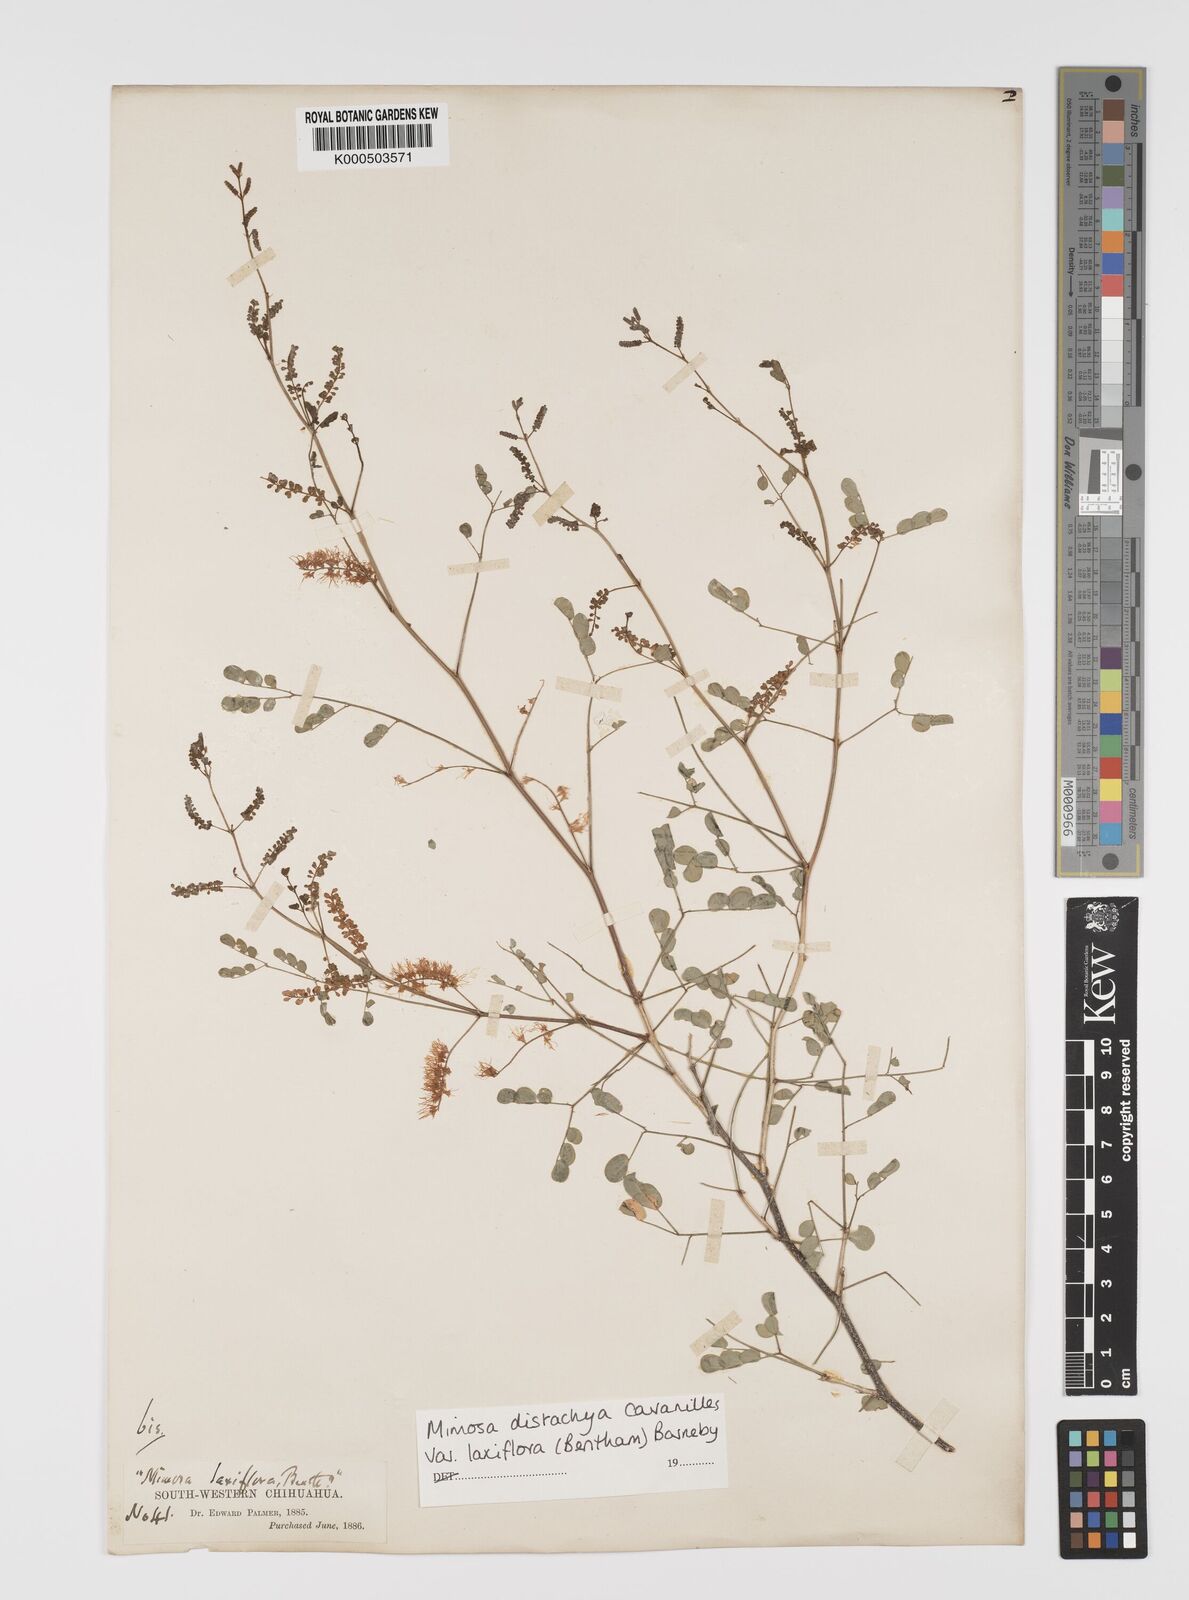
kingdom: Plantae
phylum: Tracheophyta
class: Magnoliopsida
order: Fabales
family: Fabaceae
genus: Mimosa
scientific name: Mimosa distachya
